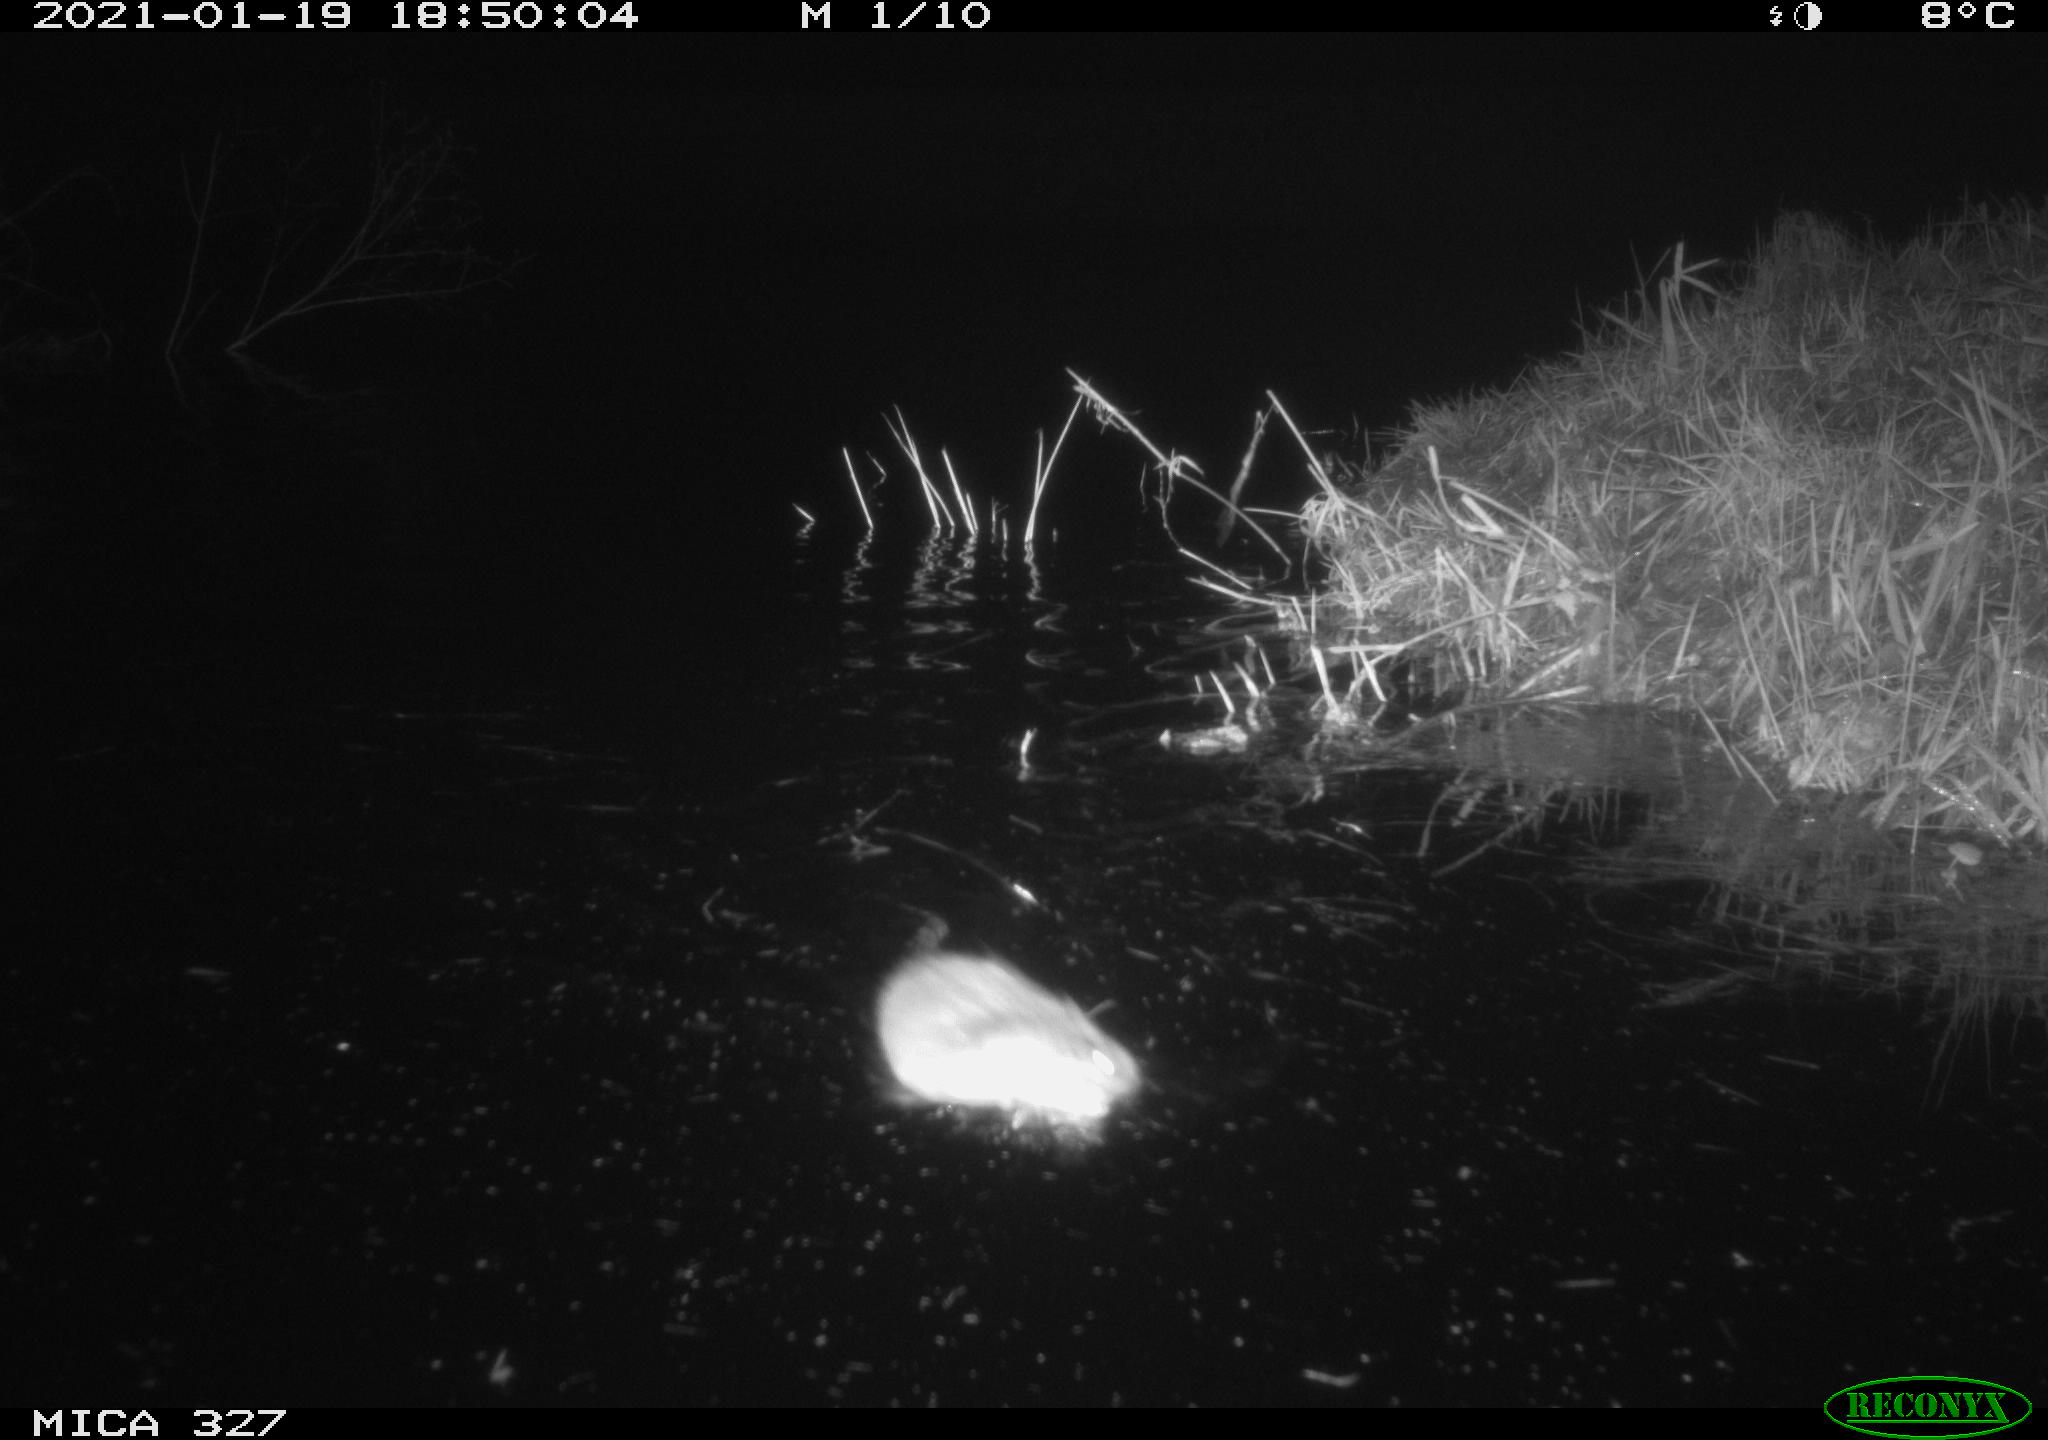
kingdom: Animalia
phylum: Chordata
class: Mammalia
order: Rodentia
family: Cricetidae
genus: Ondatra
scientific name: Ondatra zibethicus
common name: Muskrat
